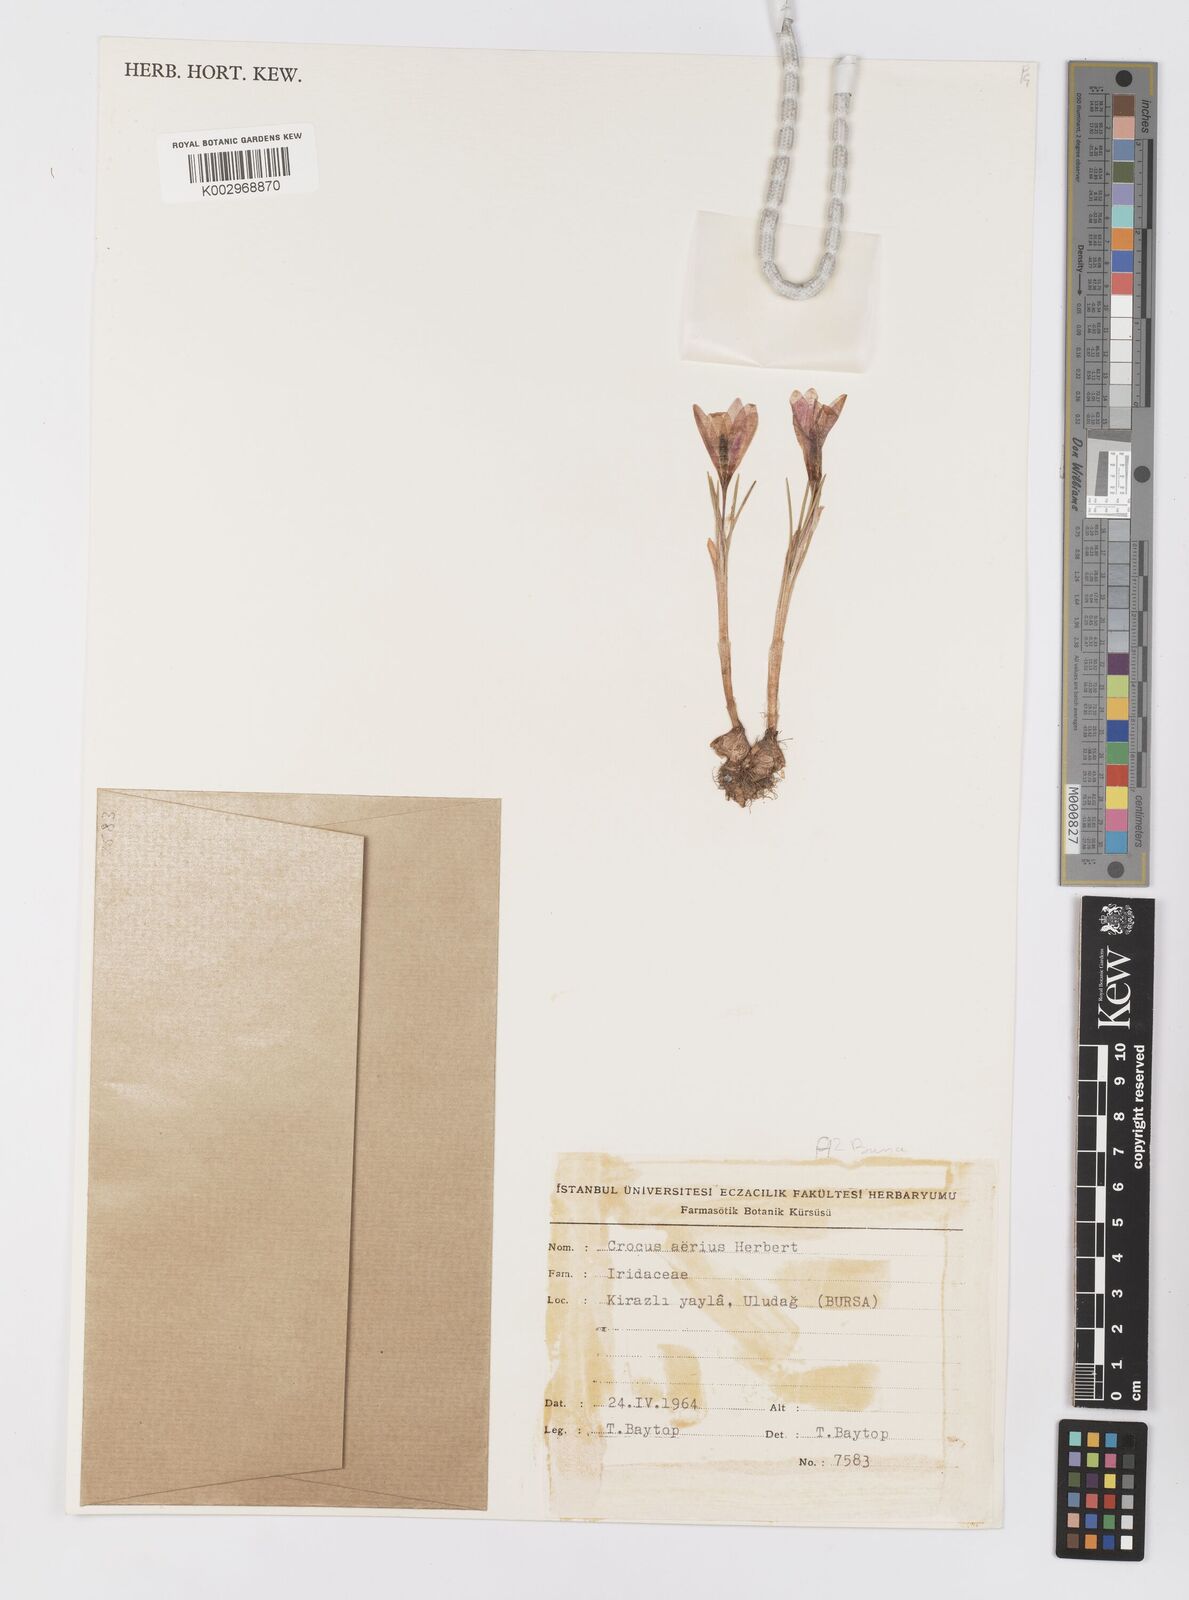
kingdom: Plantae
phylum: Tracheophyta
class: Liliopsida
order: Asparagales
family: Iridaceae
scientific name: Iridaceae
